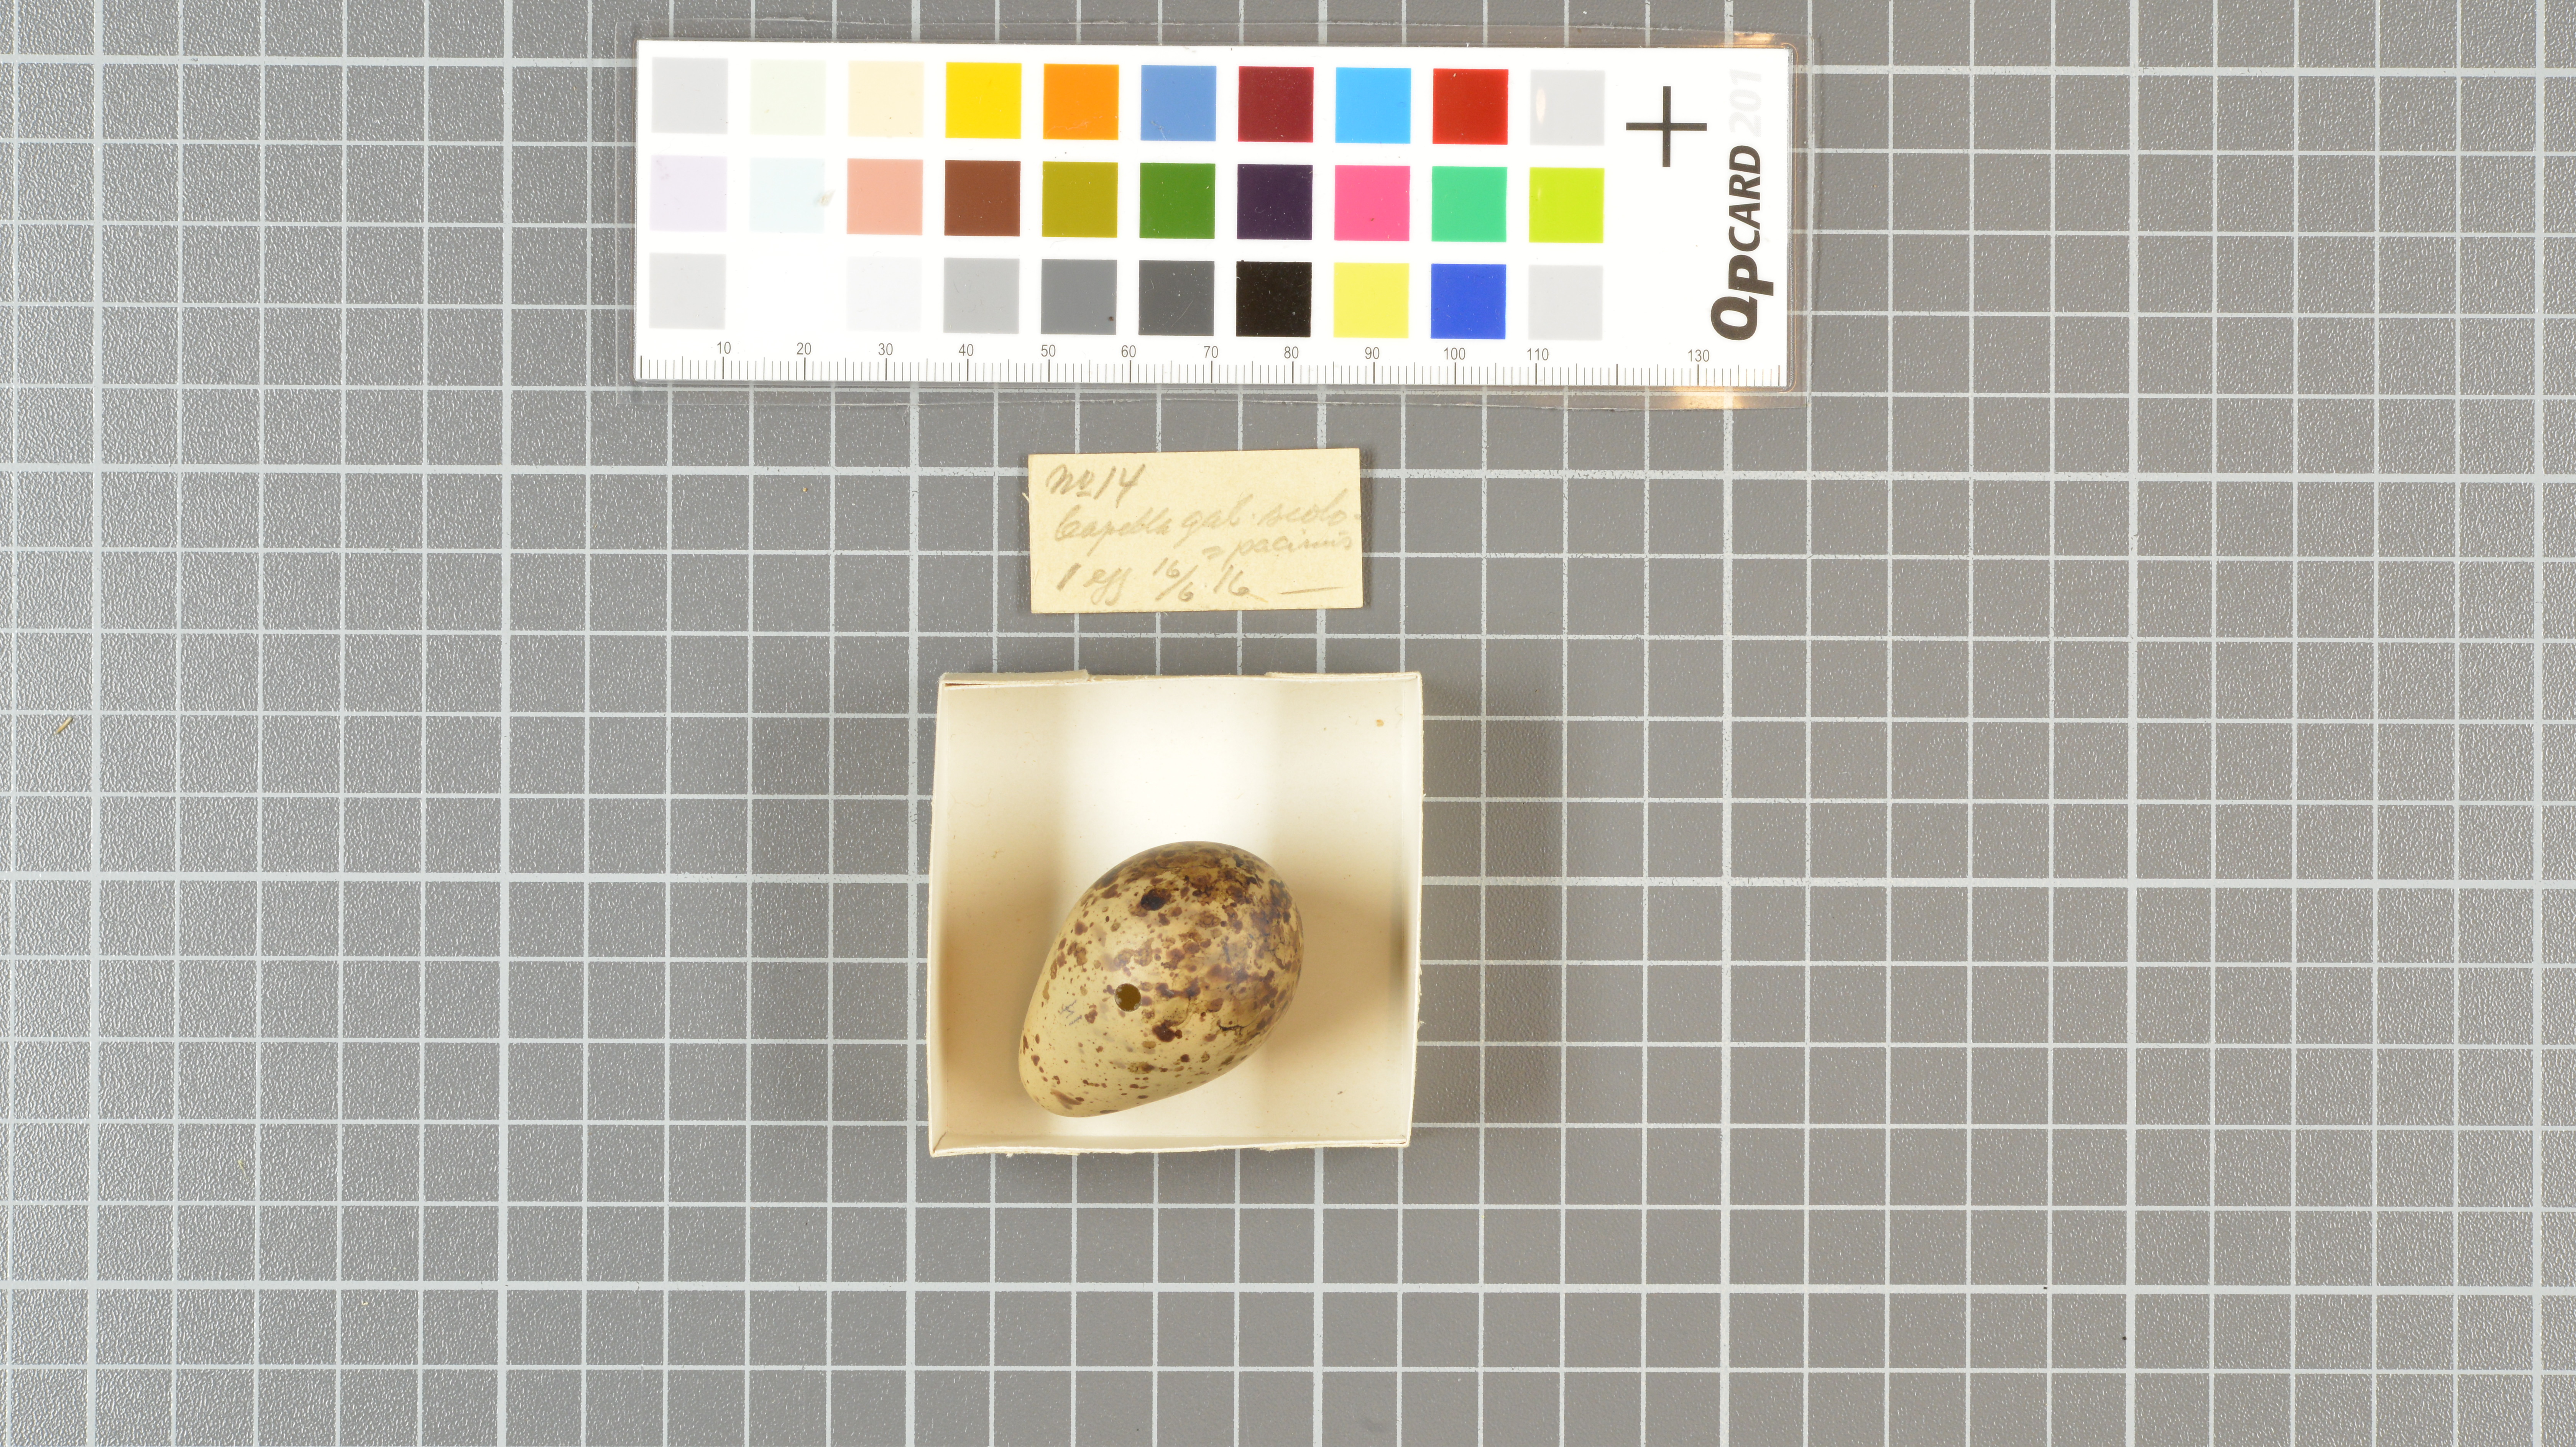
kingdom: Animalia
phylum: Chordata
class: Aves
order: Charadriiformes
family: Scolopacidae
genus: Gallinago
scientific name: Gallinago gallinago
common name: Common snipe
